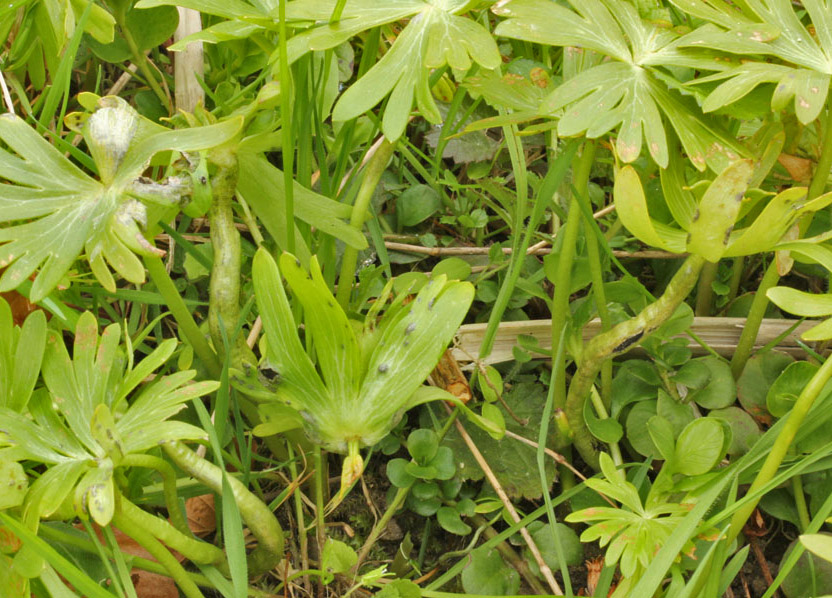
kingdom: Fungi
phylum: Basidiomycota
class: Ustilaginomycetes
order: Urocystidales
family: Urocystidaceae
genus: Urocystis
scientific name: Urocystis eranthidis
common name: erantis-brand
